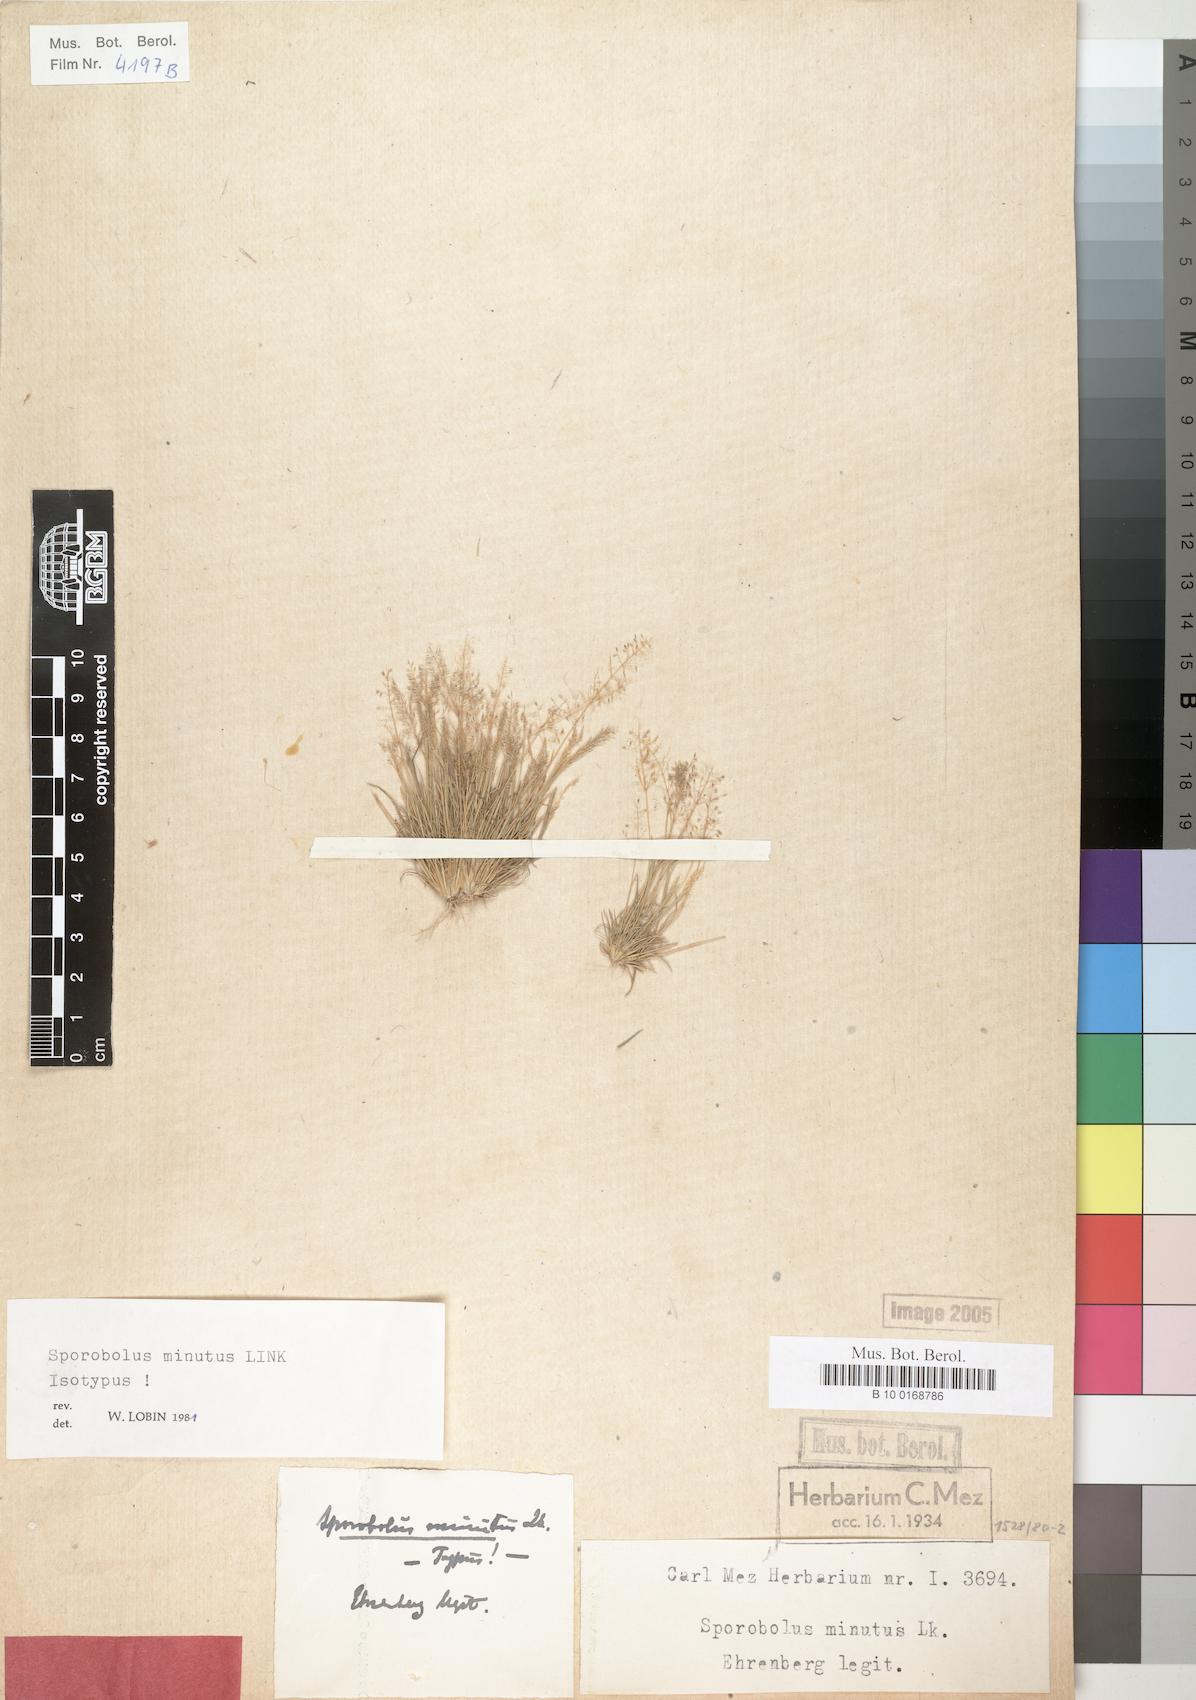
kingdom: Plantae
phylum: Tracheophyta
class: Liliopsida
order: Poales
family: Poaceae
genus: Sporobolus
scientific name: Sporobolus minutus
